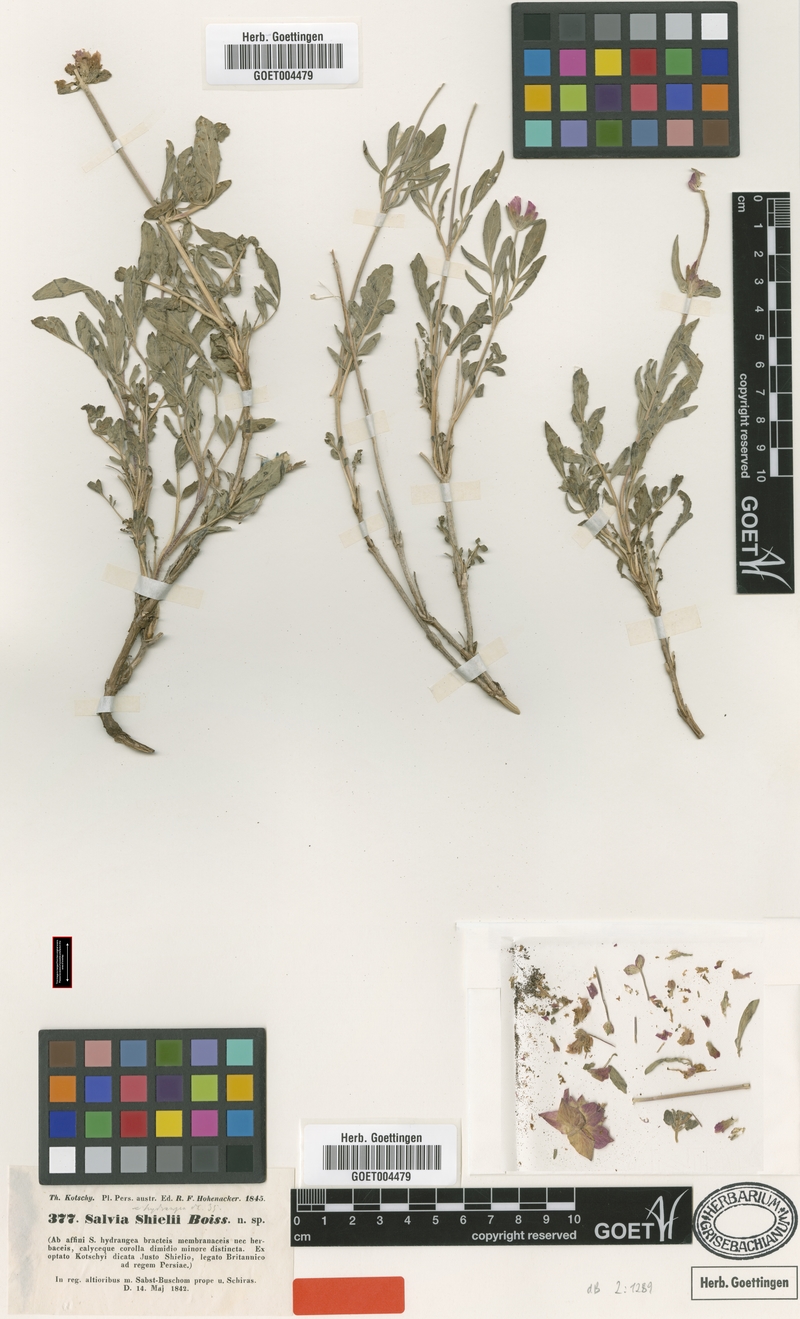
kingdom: Plantae
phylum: Tracheophyta
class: Magnoliopsida
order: Lamiales
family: Lamiaceae
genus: Salvia
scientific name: Salvia hydrangea
